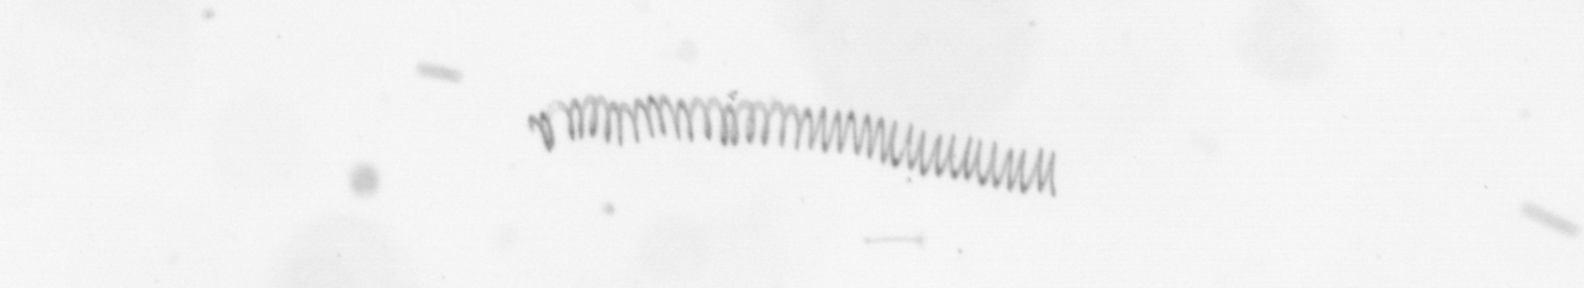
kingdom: Chromista
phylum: Ochrophyta
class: Bacillariophyceae
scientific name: Bacillariophyceae
